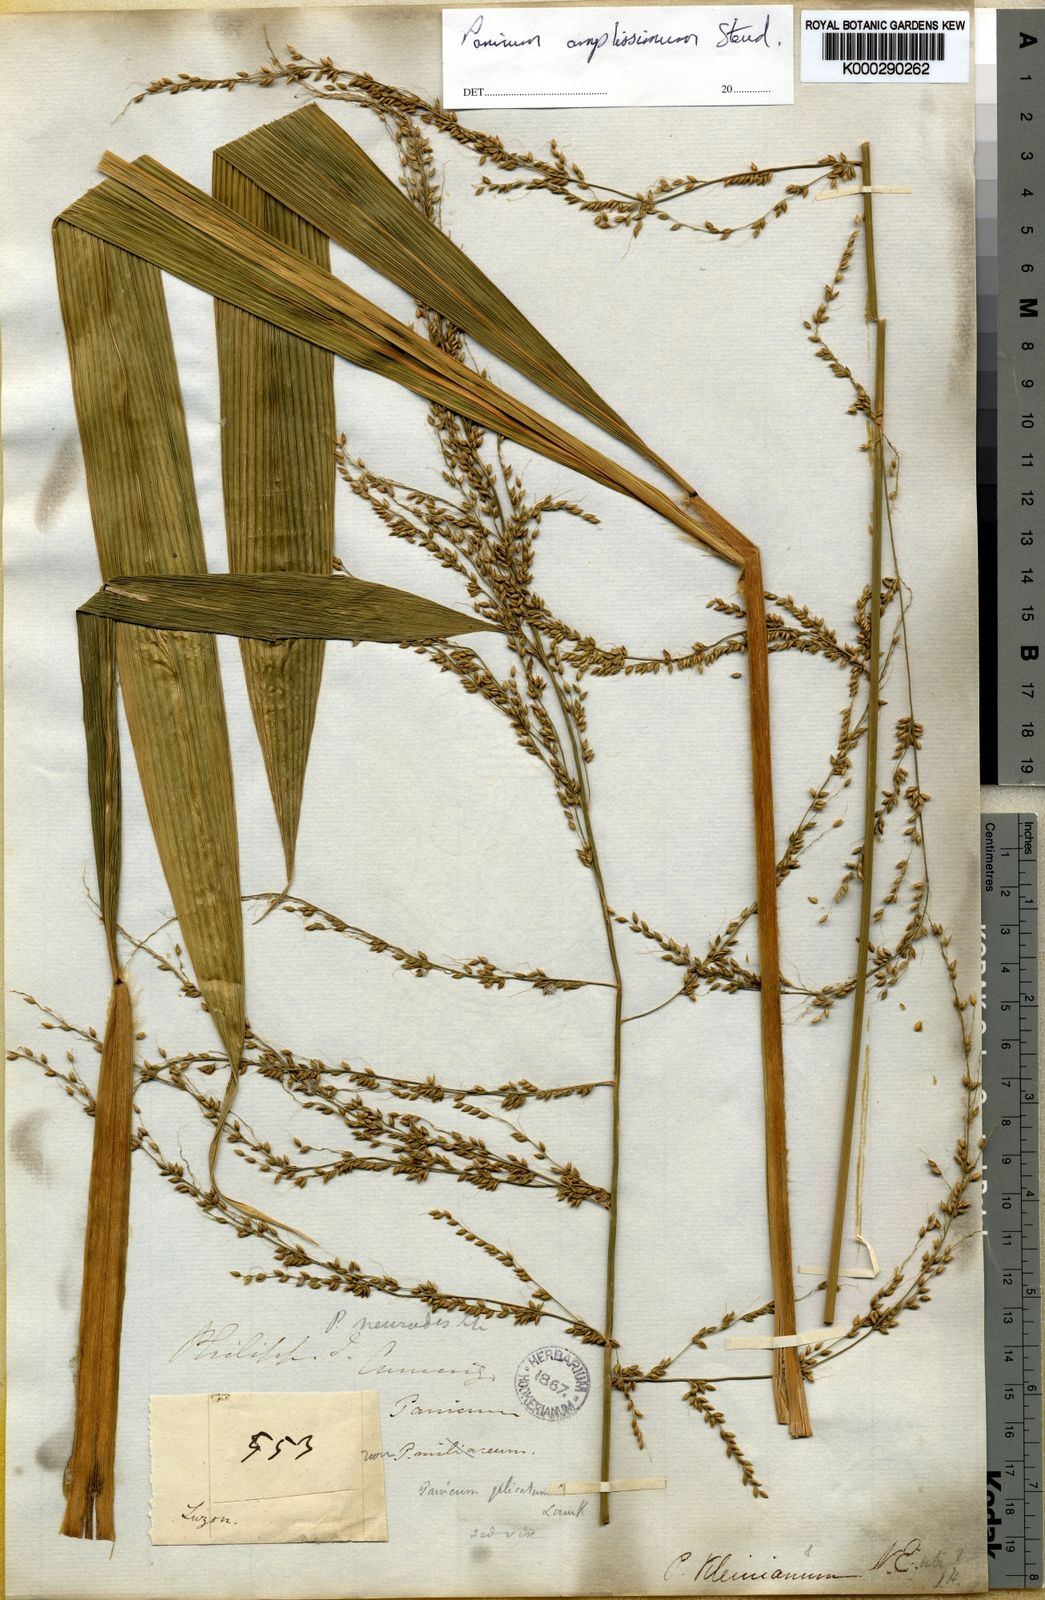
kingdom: Plantae
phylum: Tracheophyta
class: Liliopsida
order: Poales
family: Poaceae
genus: Setaria
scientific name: Setaria palmifolia
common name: Broadleaved bristlegrass
